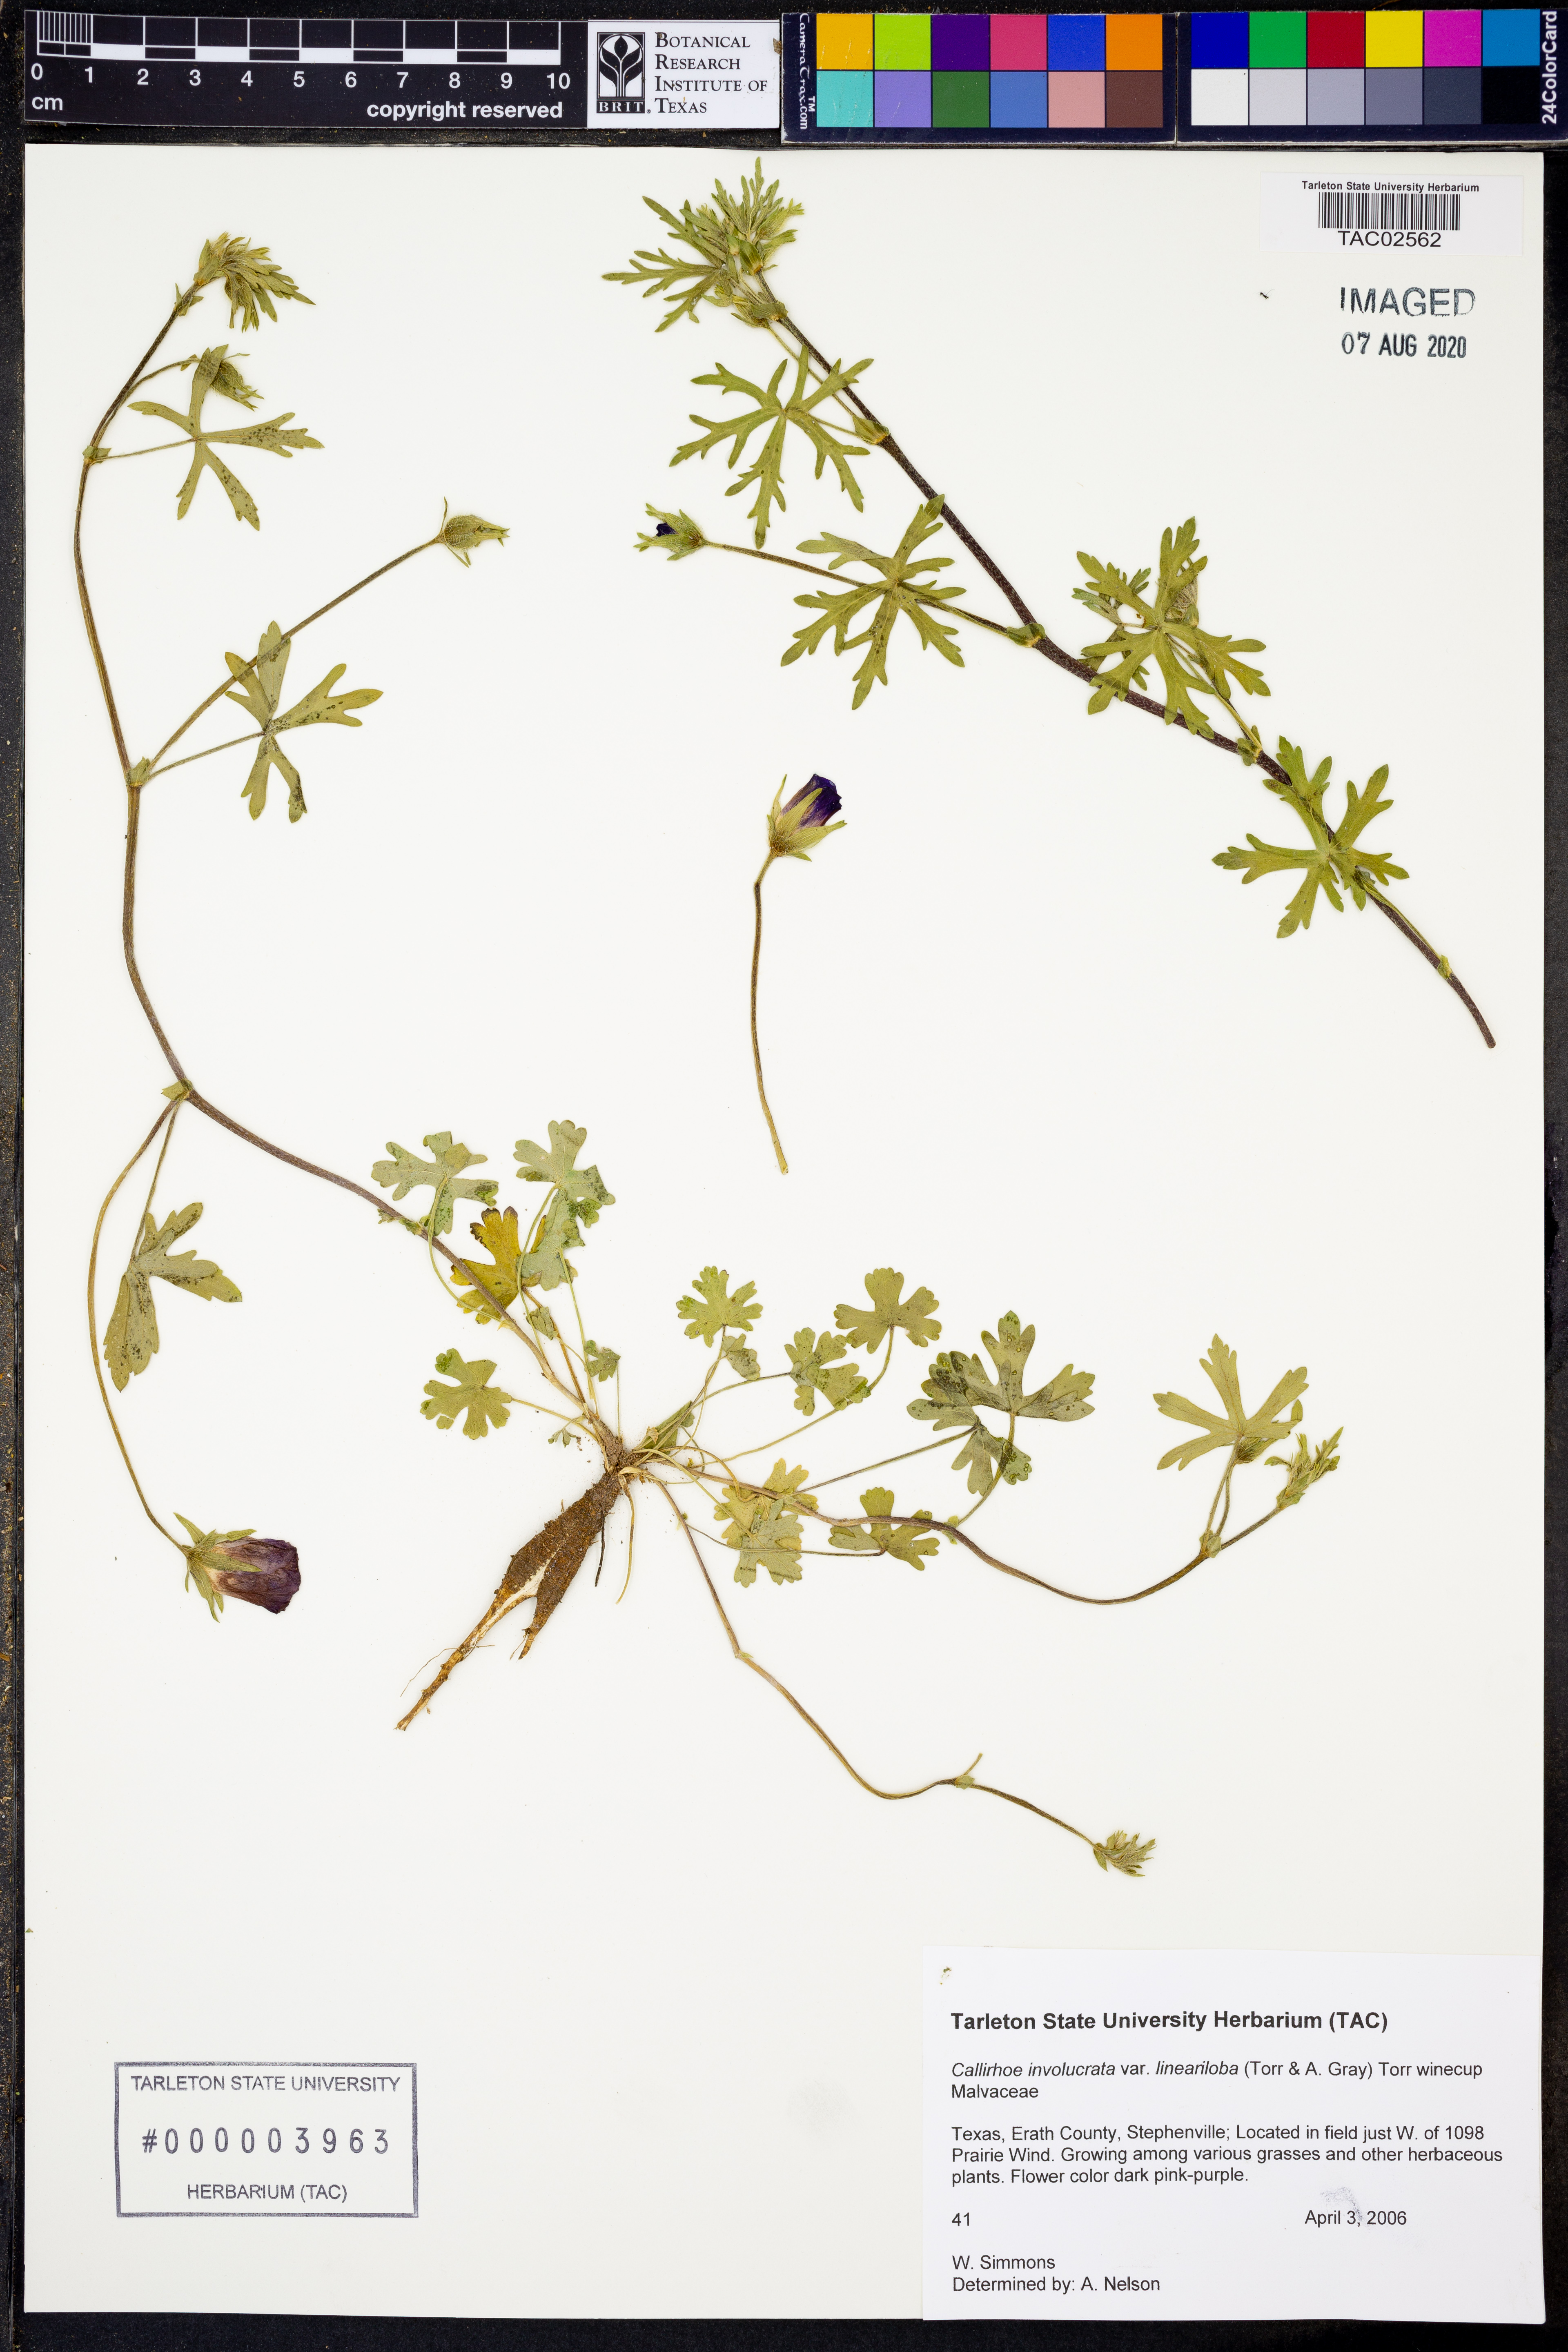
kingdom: Plantae
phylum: Tracheophyta
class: Magnoliopsida
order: Malvales
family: Malvaceae
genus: Callirhoe
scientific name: Callirhoe involucrata
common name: Purple poppy-mallow
